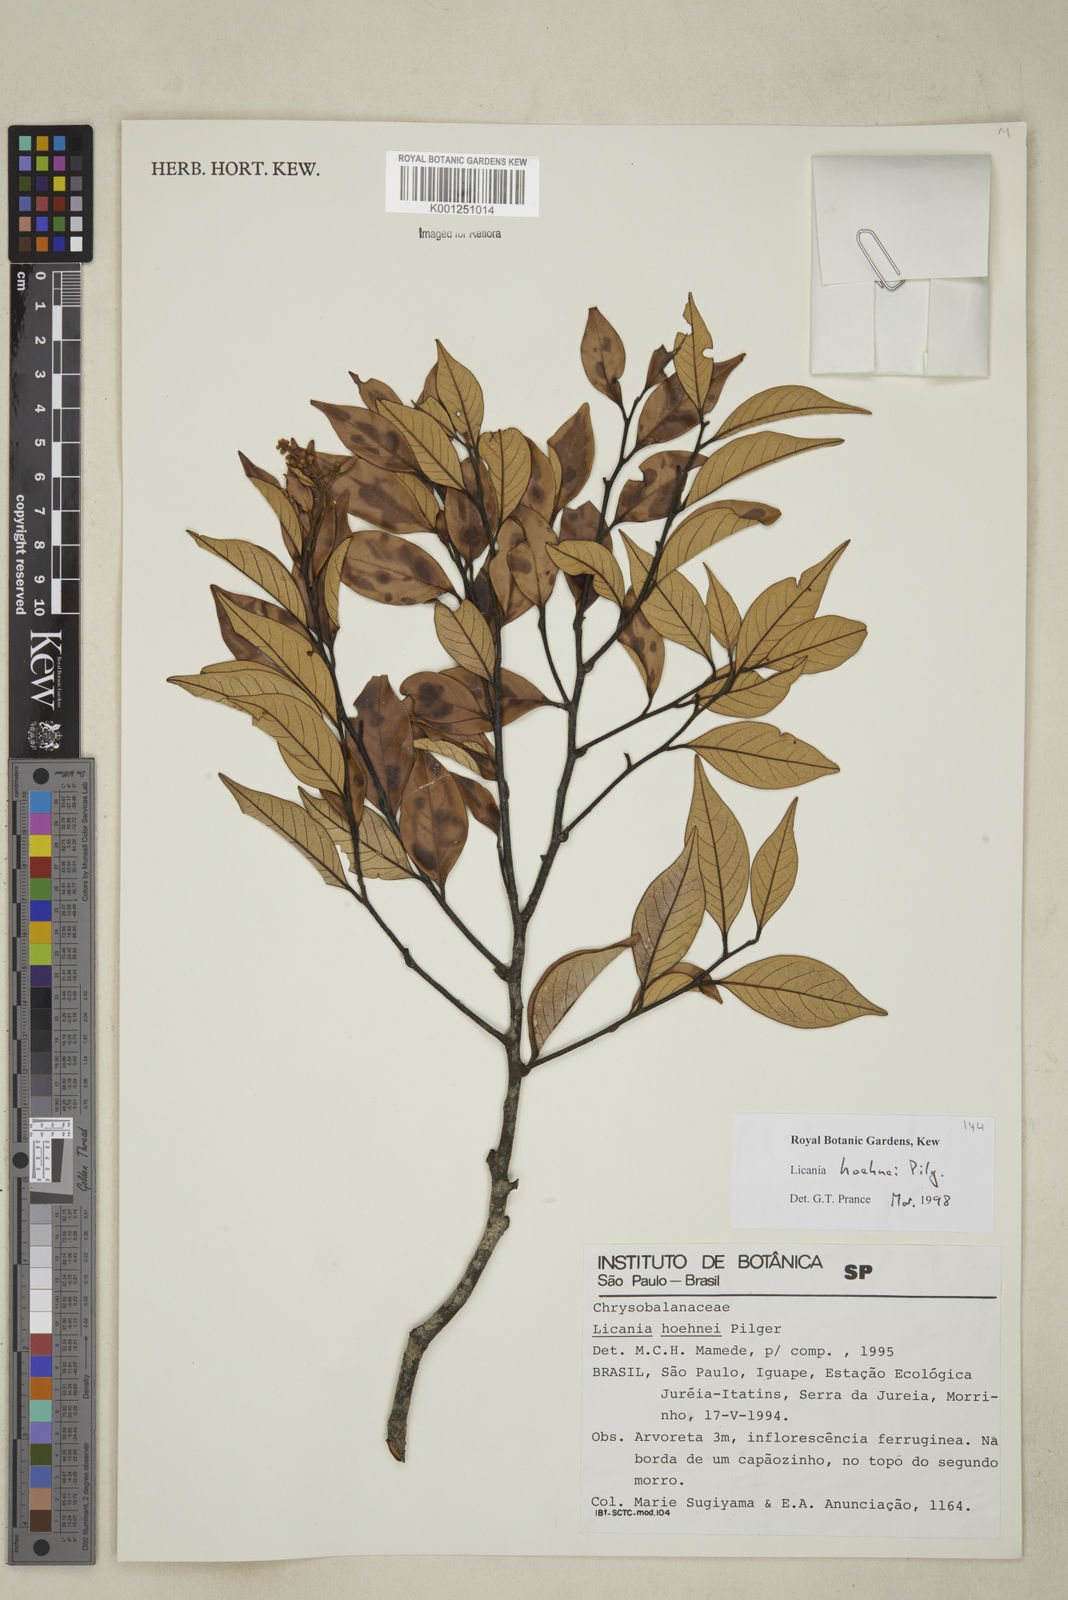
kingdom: Plantae
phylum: Tracheophyta
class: Magnoliopsida
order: Malpighiales
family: Chrysobalanaceae
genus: Licania
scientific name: Licania indurata
